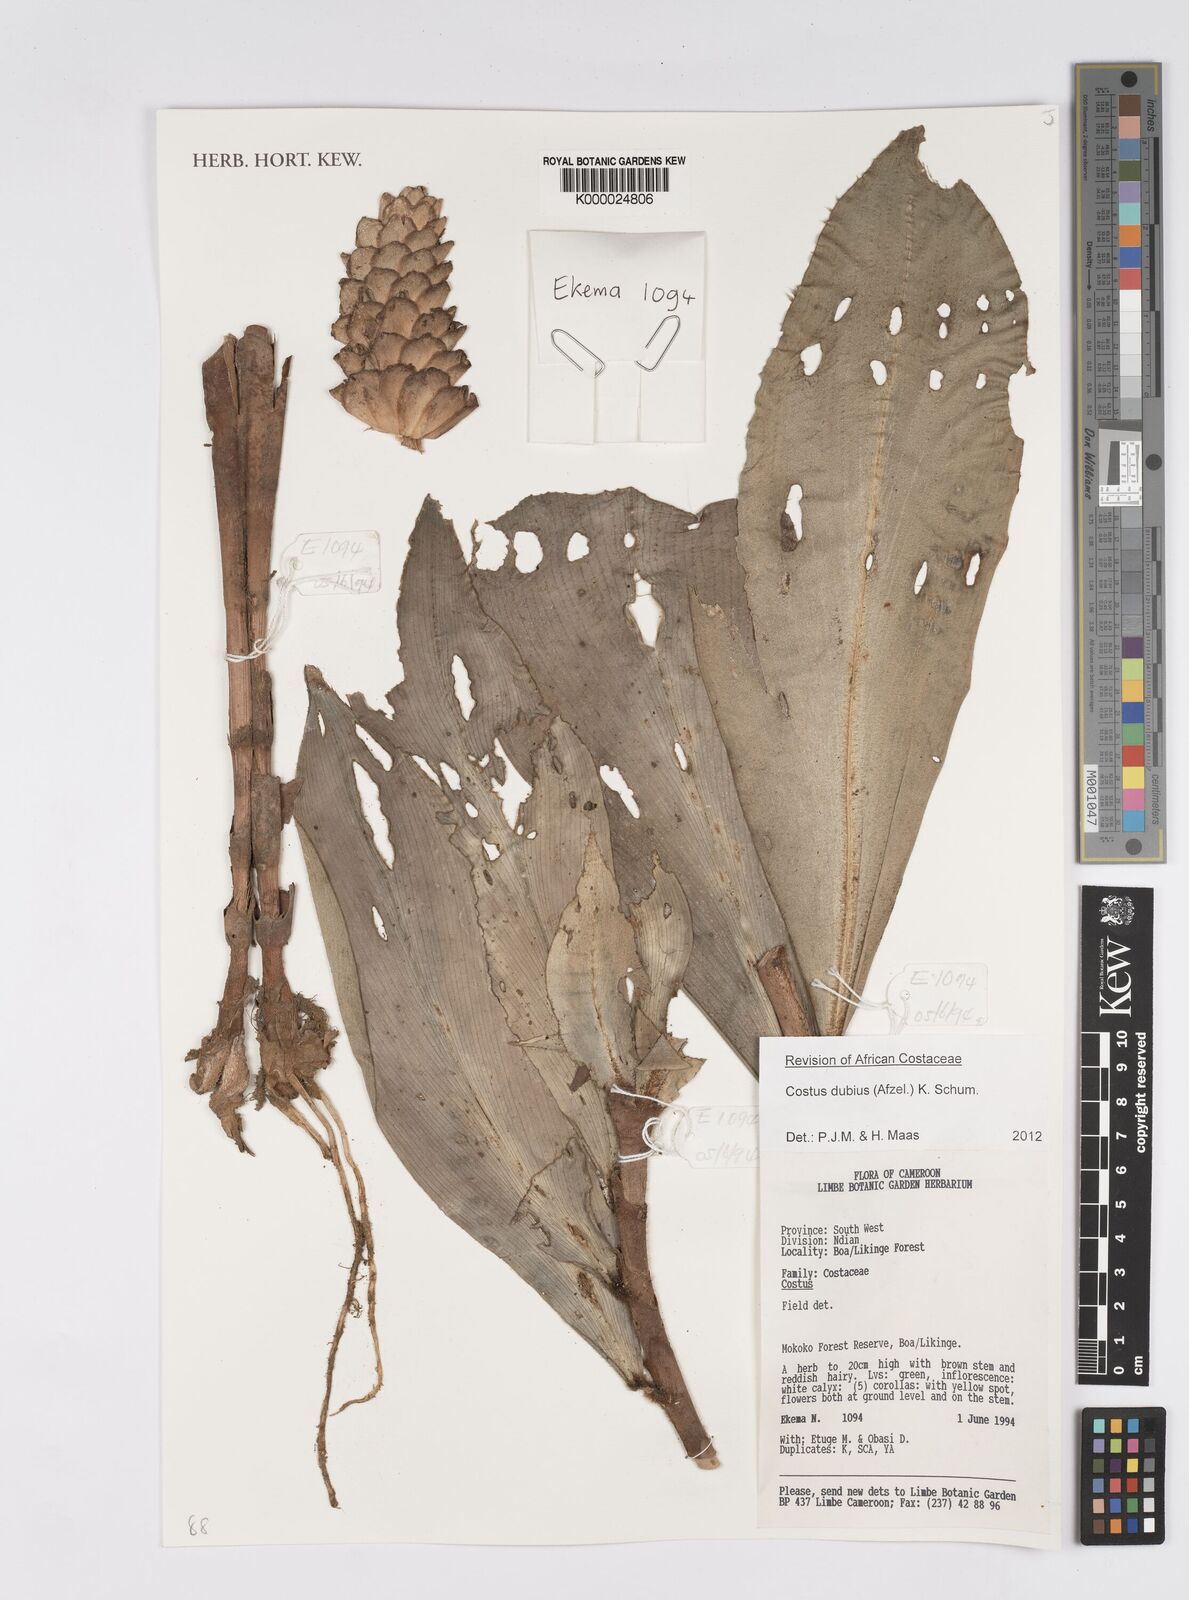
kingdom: Plantae
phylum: Tracheophyta
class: Liliopsida
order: Zingiberales
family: Costaceae
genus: Costus
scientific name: Costus dubius
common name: Costus
